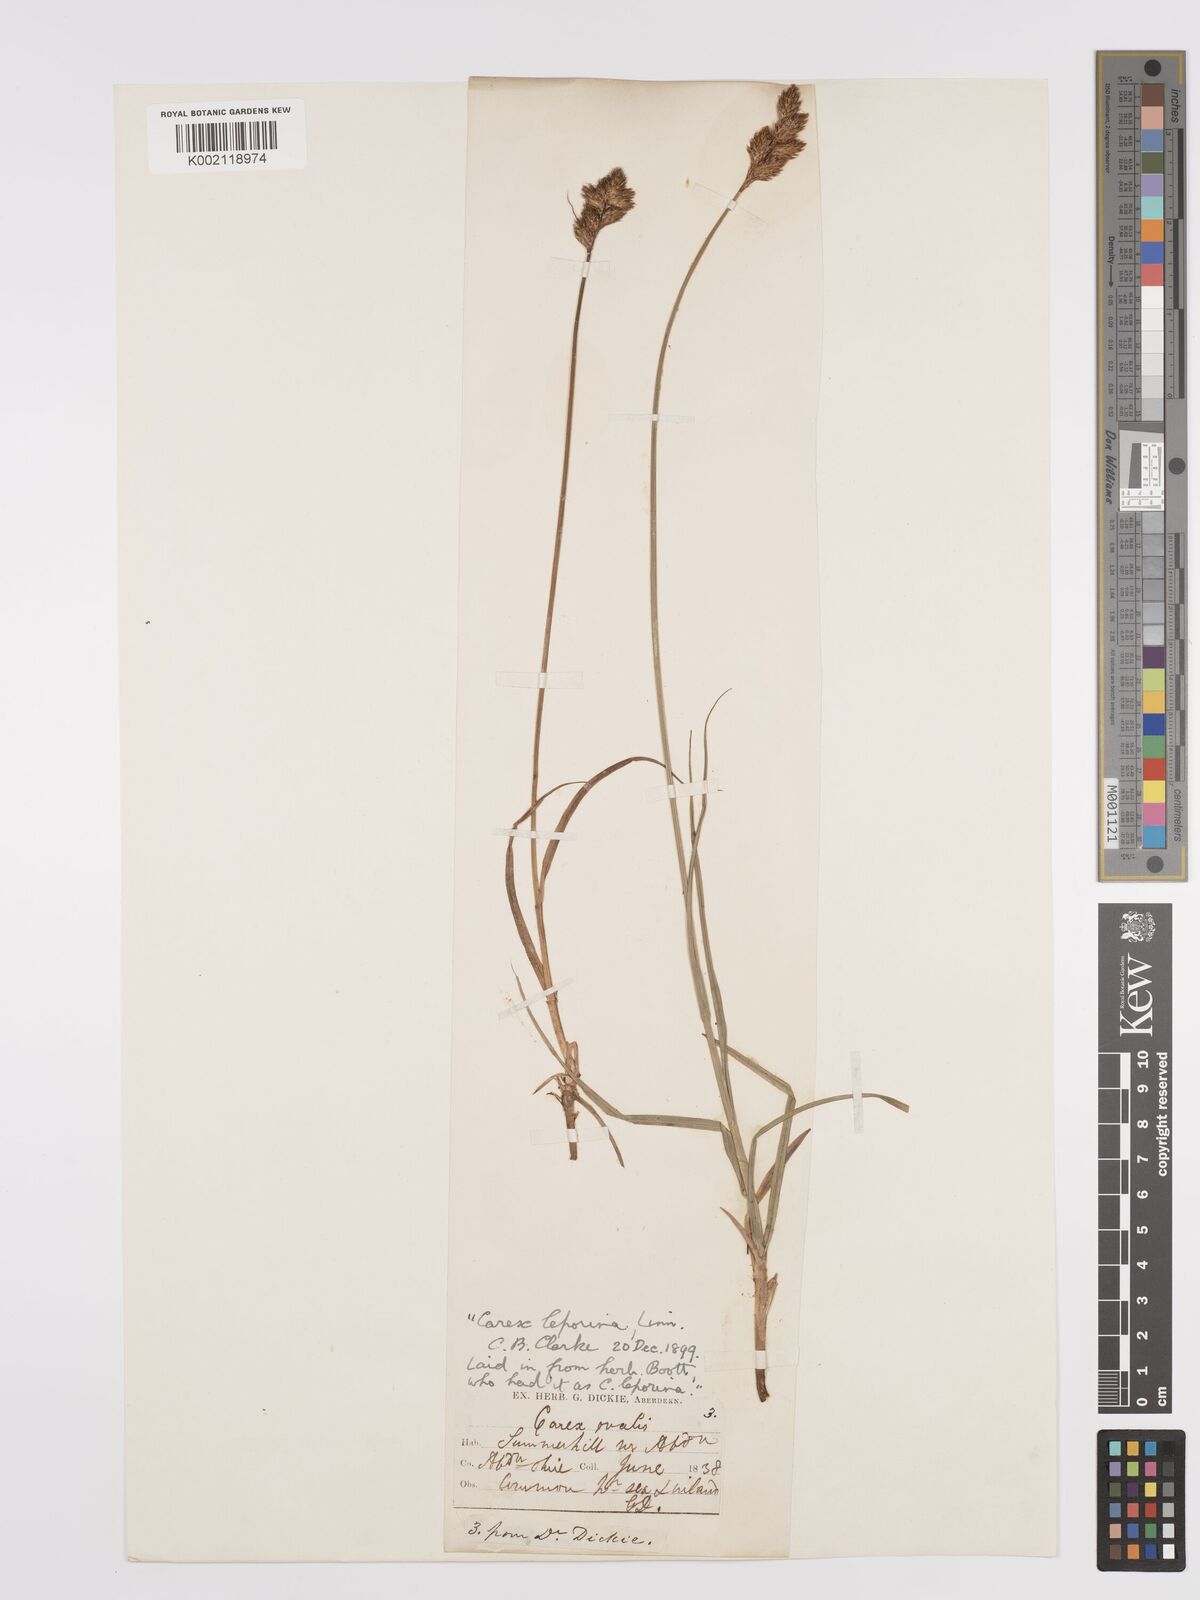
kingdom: Plantae
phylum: Tracheophyta
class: Liliopsida
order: Poales
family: Cyperaceae
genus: Carex
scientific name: Carex leporina
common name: Oval sedge
